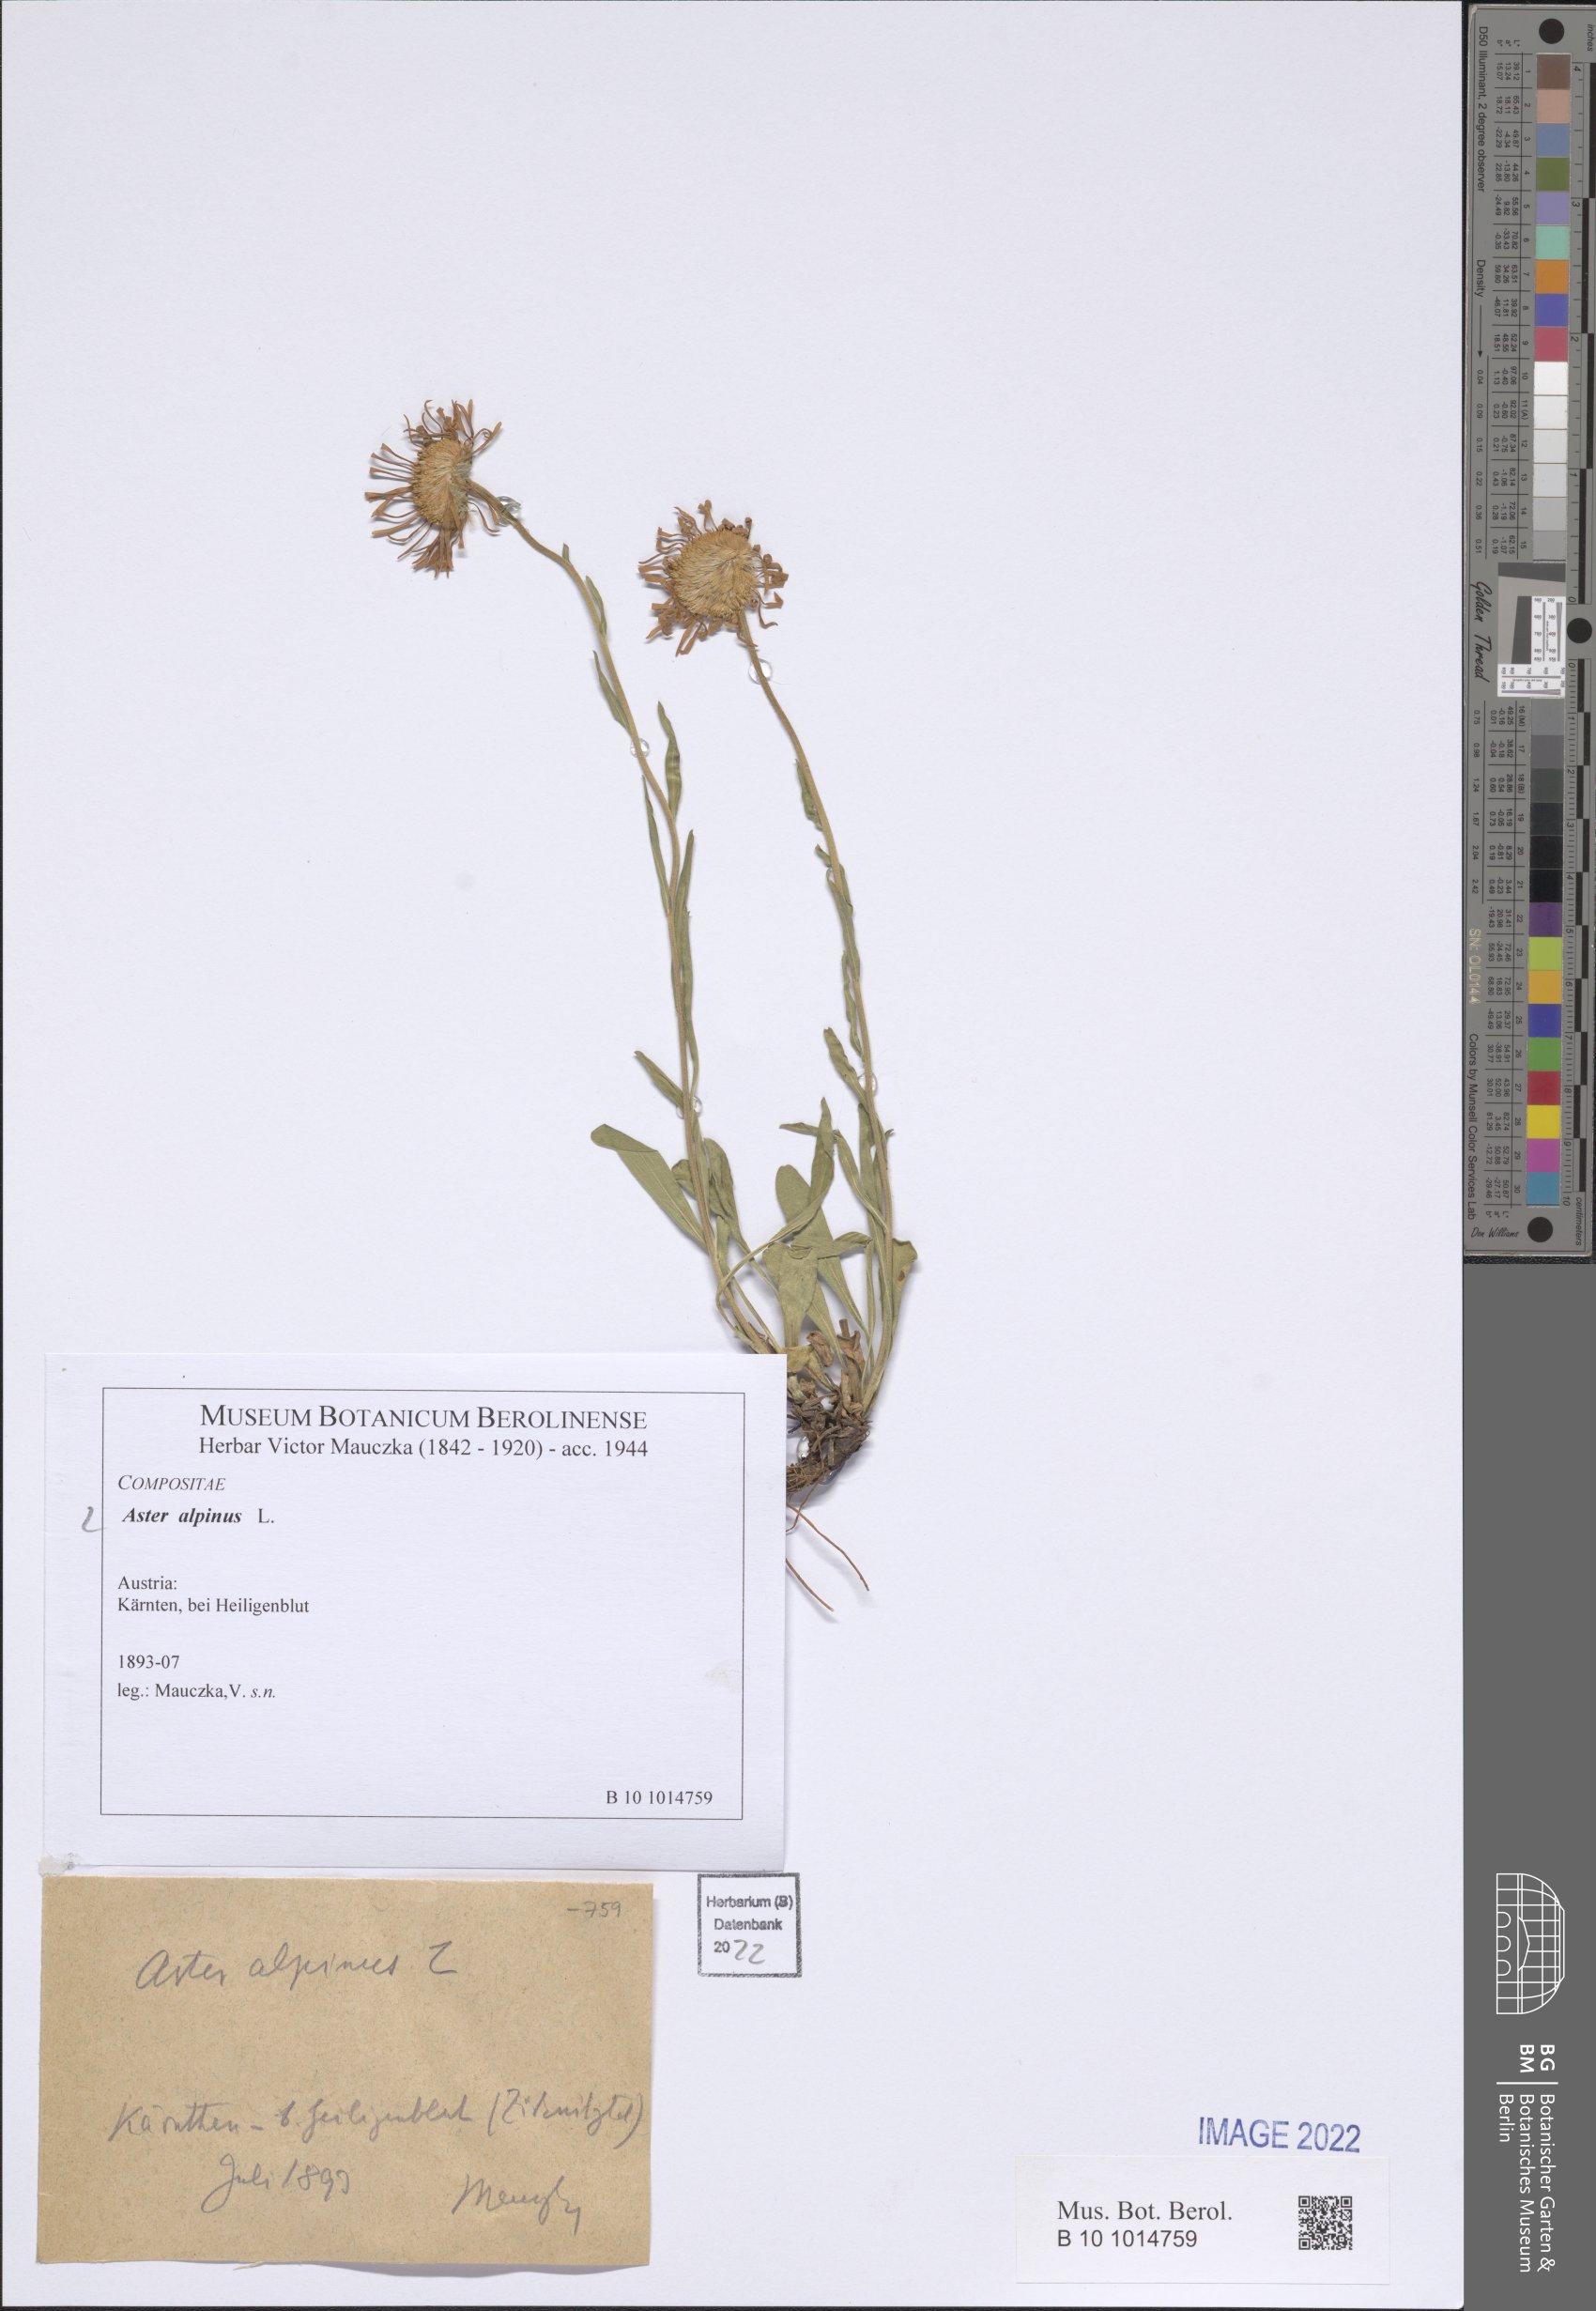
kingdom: Plantae
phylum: Tracheophyta
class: Magnoliopsida
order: Asterales
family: Asteraceae
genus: Aster
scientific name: Aster alpinus
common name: Alpine aster
